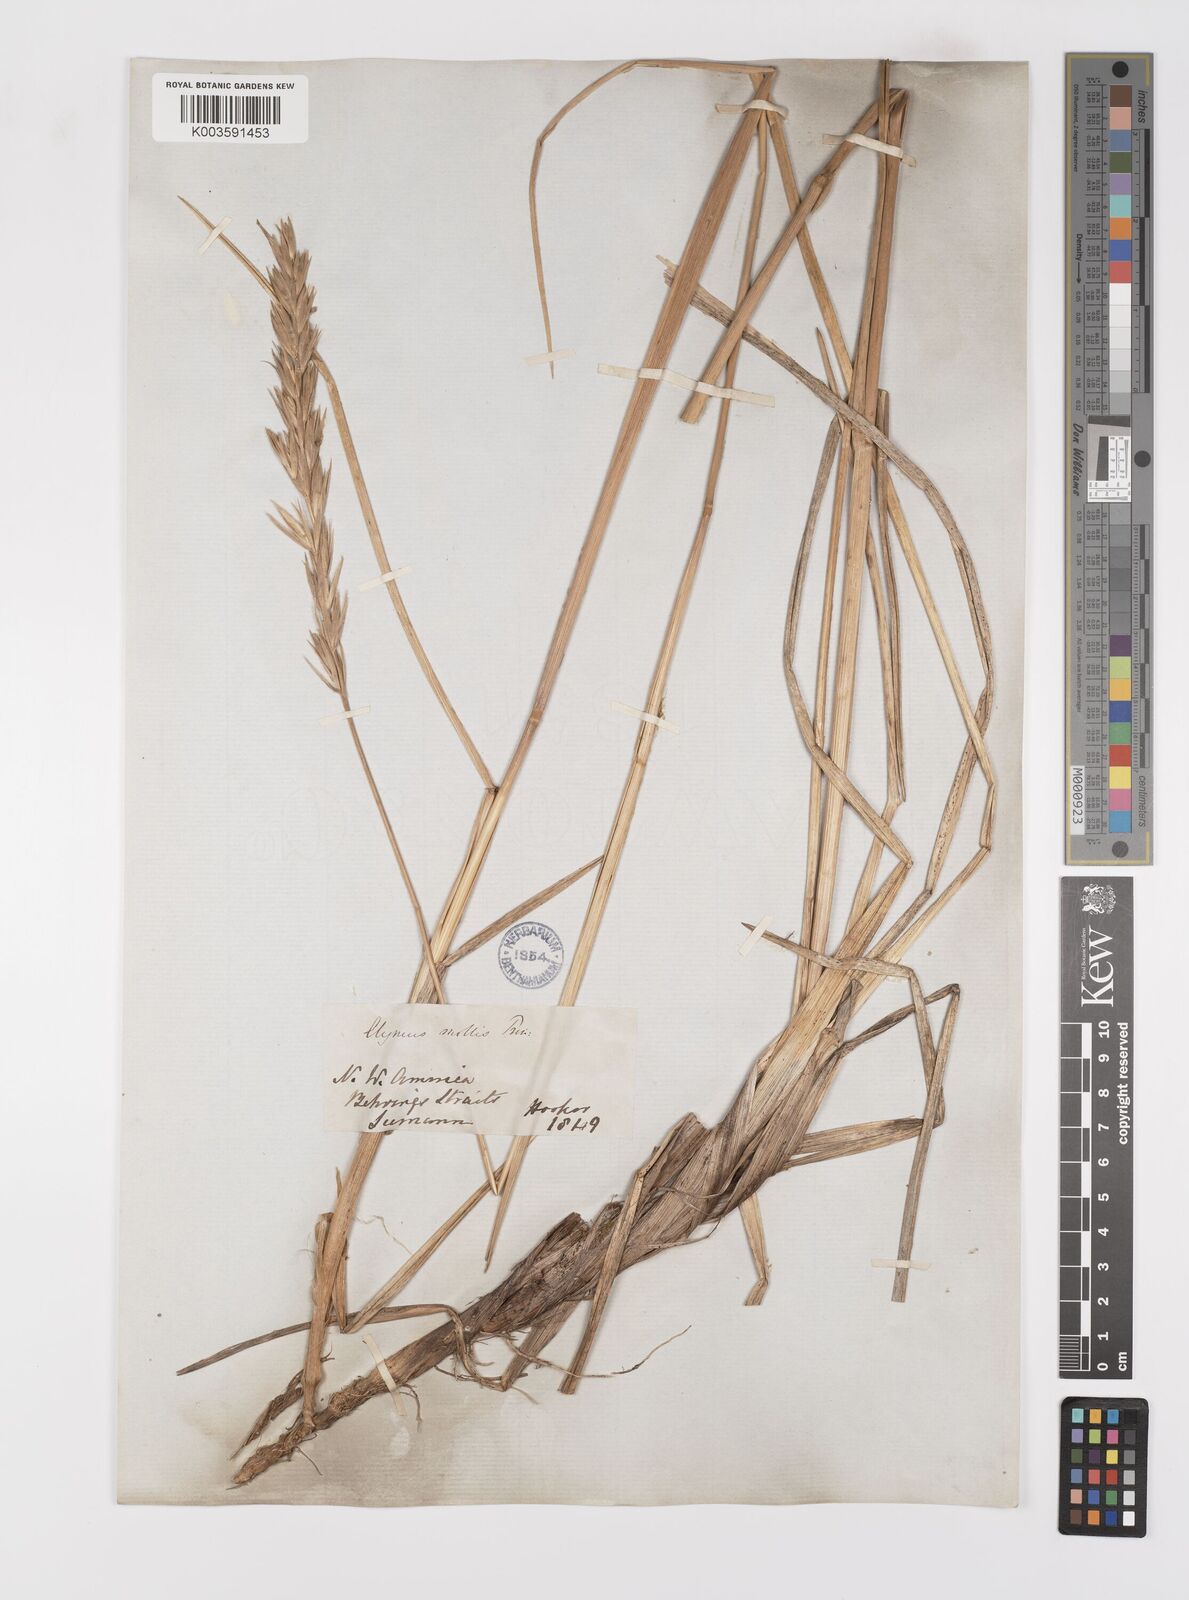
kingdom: Plantae
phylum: Tracheophyta
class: Liliopsida
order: Poales
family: Poaceae
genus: Leymus
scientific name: Leymus mollis
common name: American dune grass
